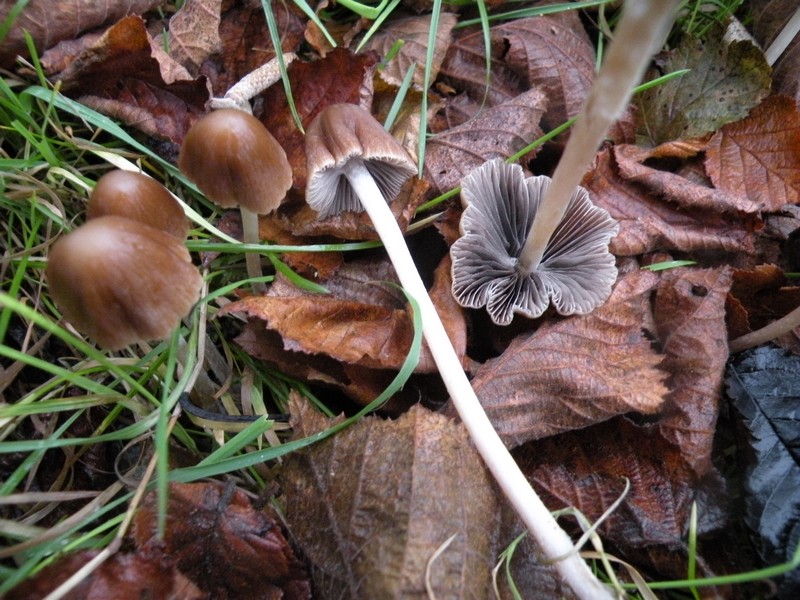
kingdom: Fungi
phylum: Basidiomycota
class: Agaricomycetes
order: Agaricales
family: Psathyrellaceae
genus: Parasola
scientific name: Parasola conopilea
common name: kegle-hjulhat
